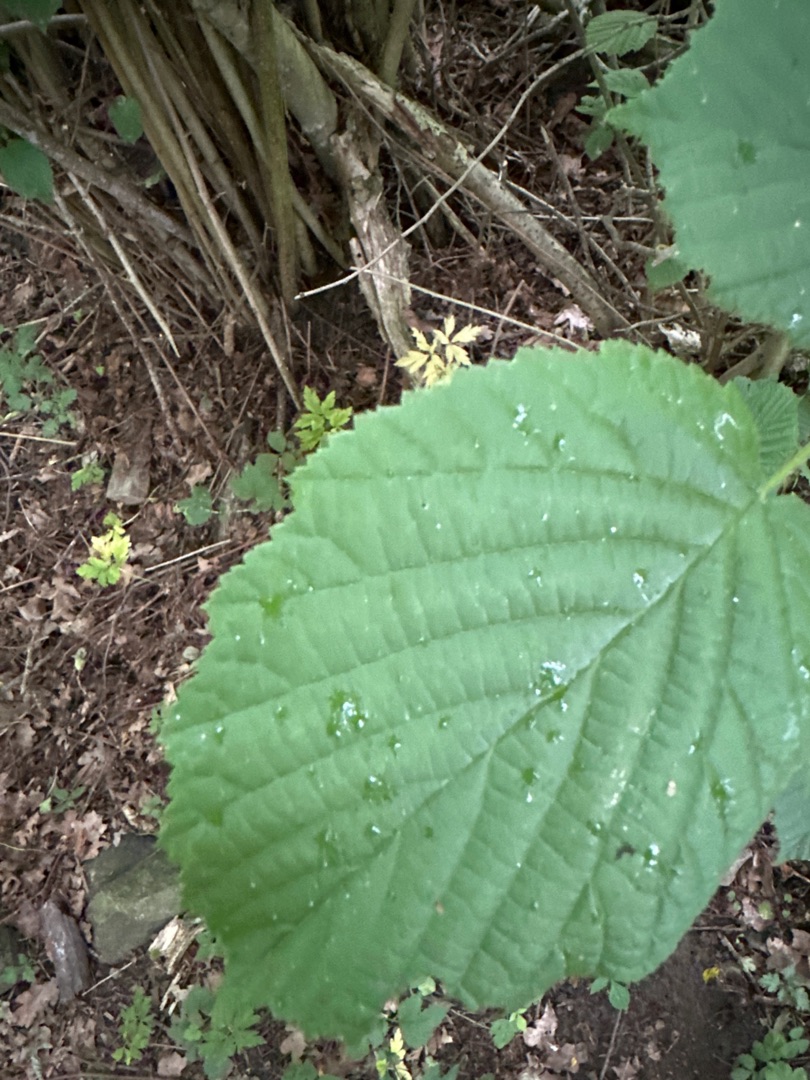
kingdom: Plantae
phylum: Tracheophyta
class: Magnoliopsida
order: Fagales
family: Betulaceae
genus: Corylus
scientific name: Corylus avellana
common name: Hassel
